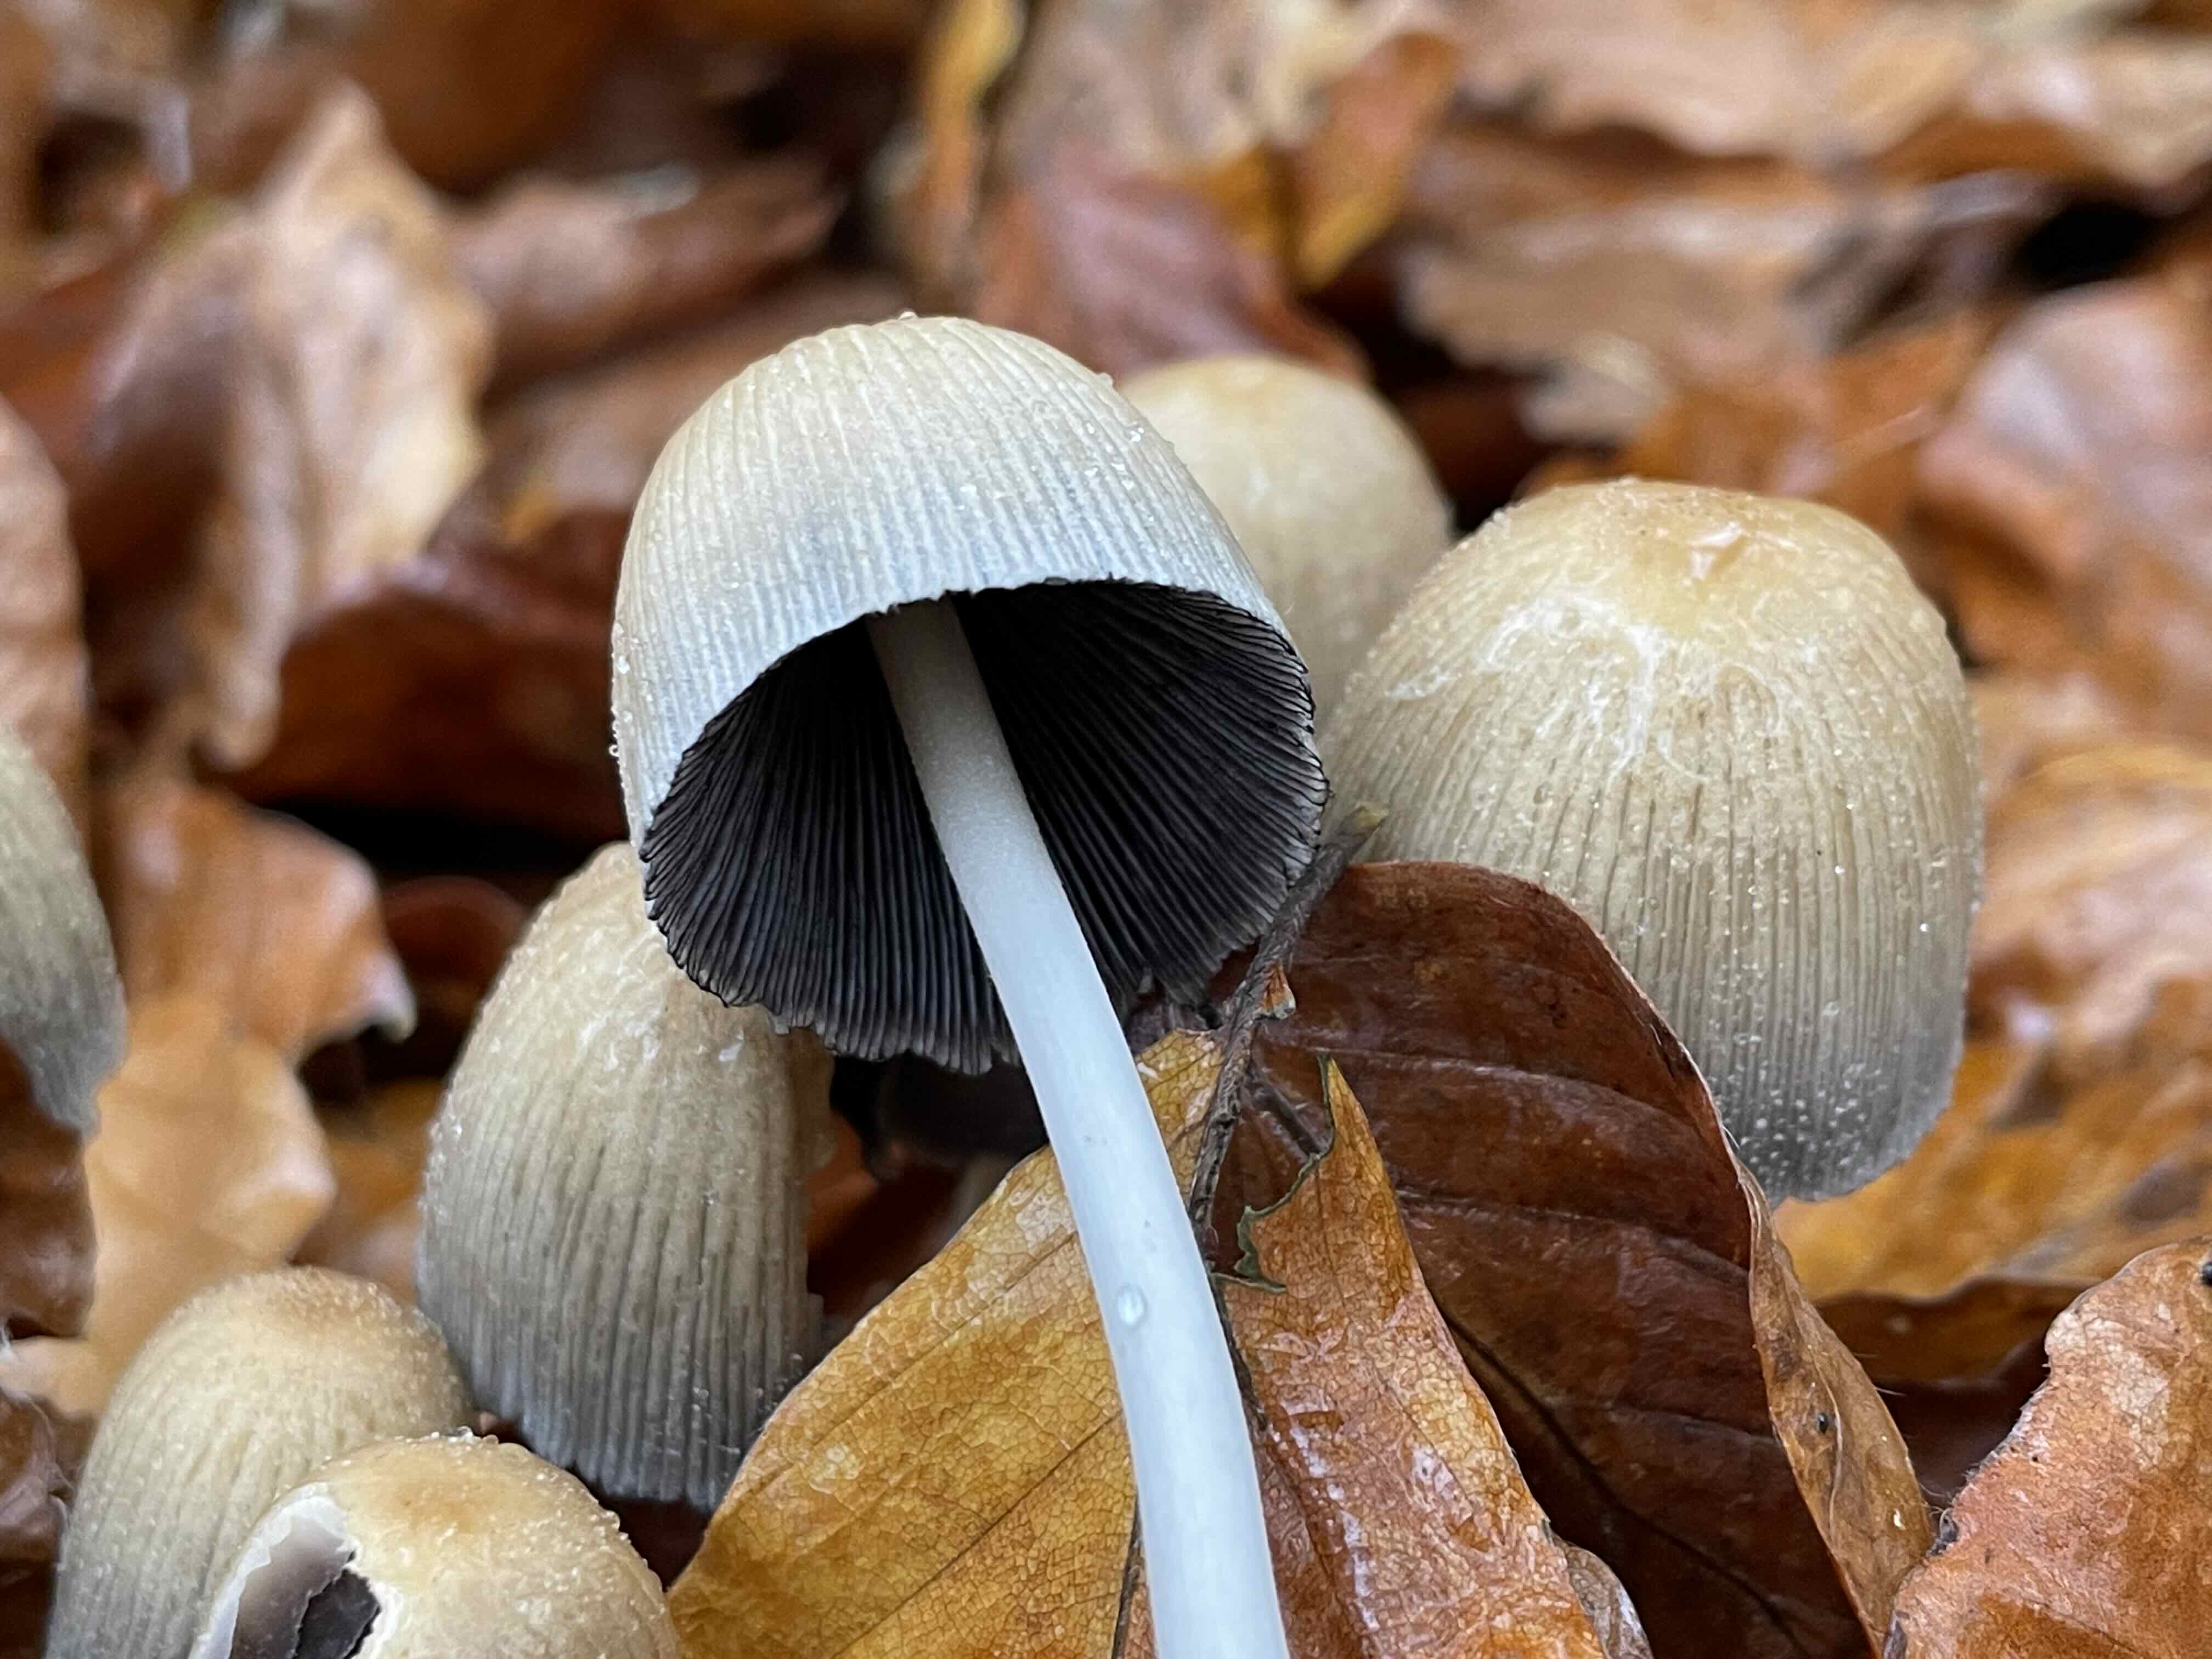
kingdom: Fungi
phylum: Basidiomycota
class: Agaricomycetes
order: Agaricales
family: Psathyrellaceae
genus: Coprinellus
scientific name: Coprinellus micaceus
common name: glimmer-blækhat
